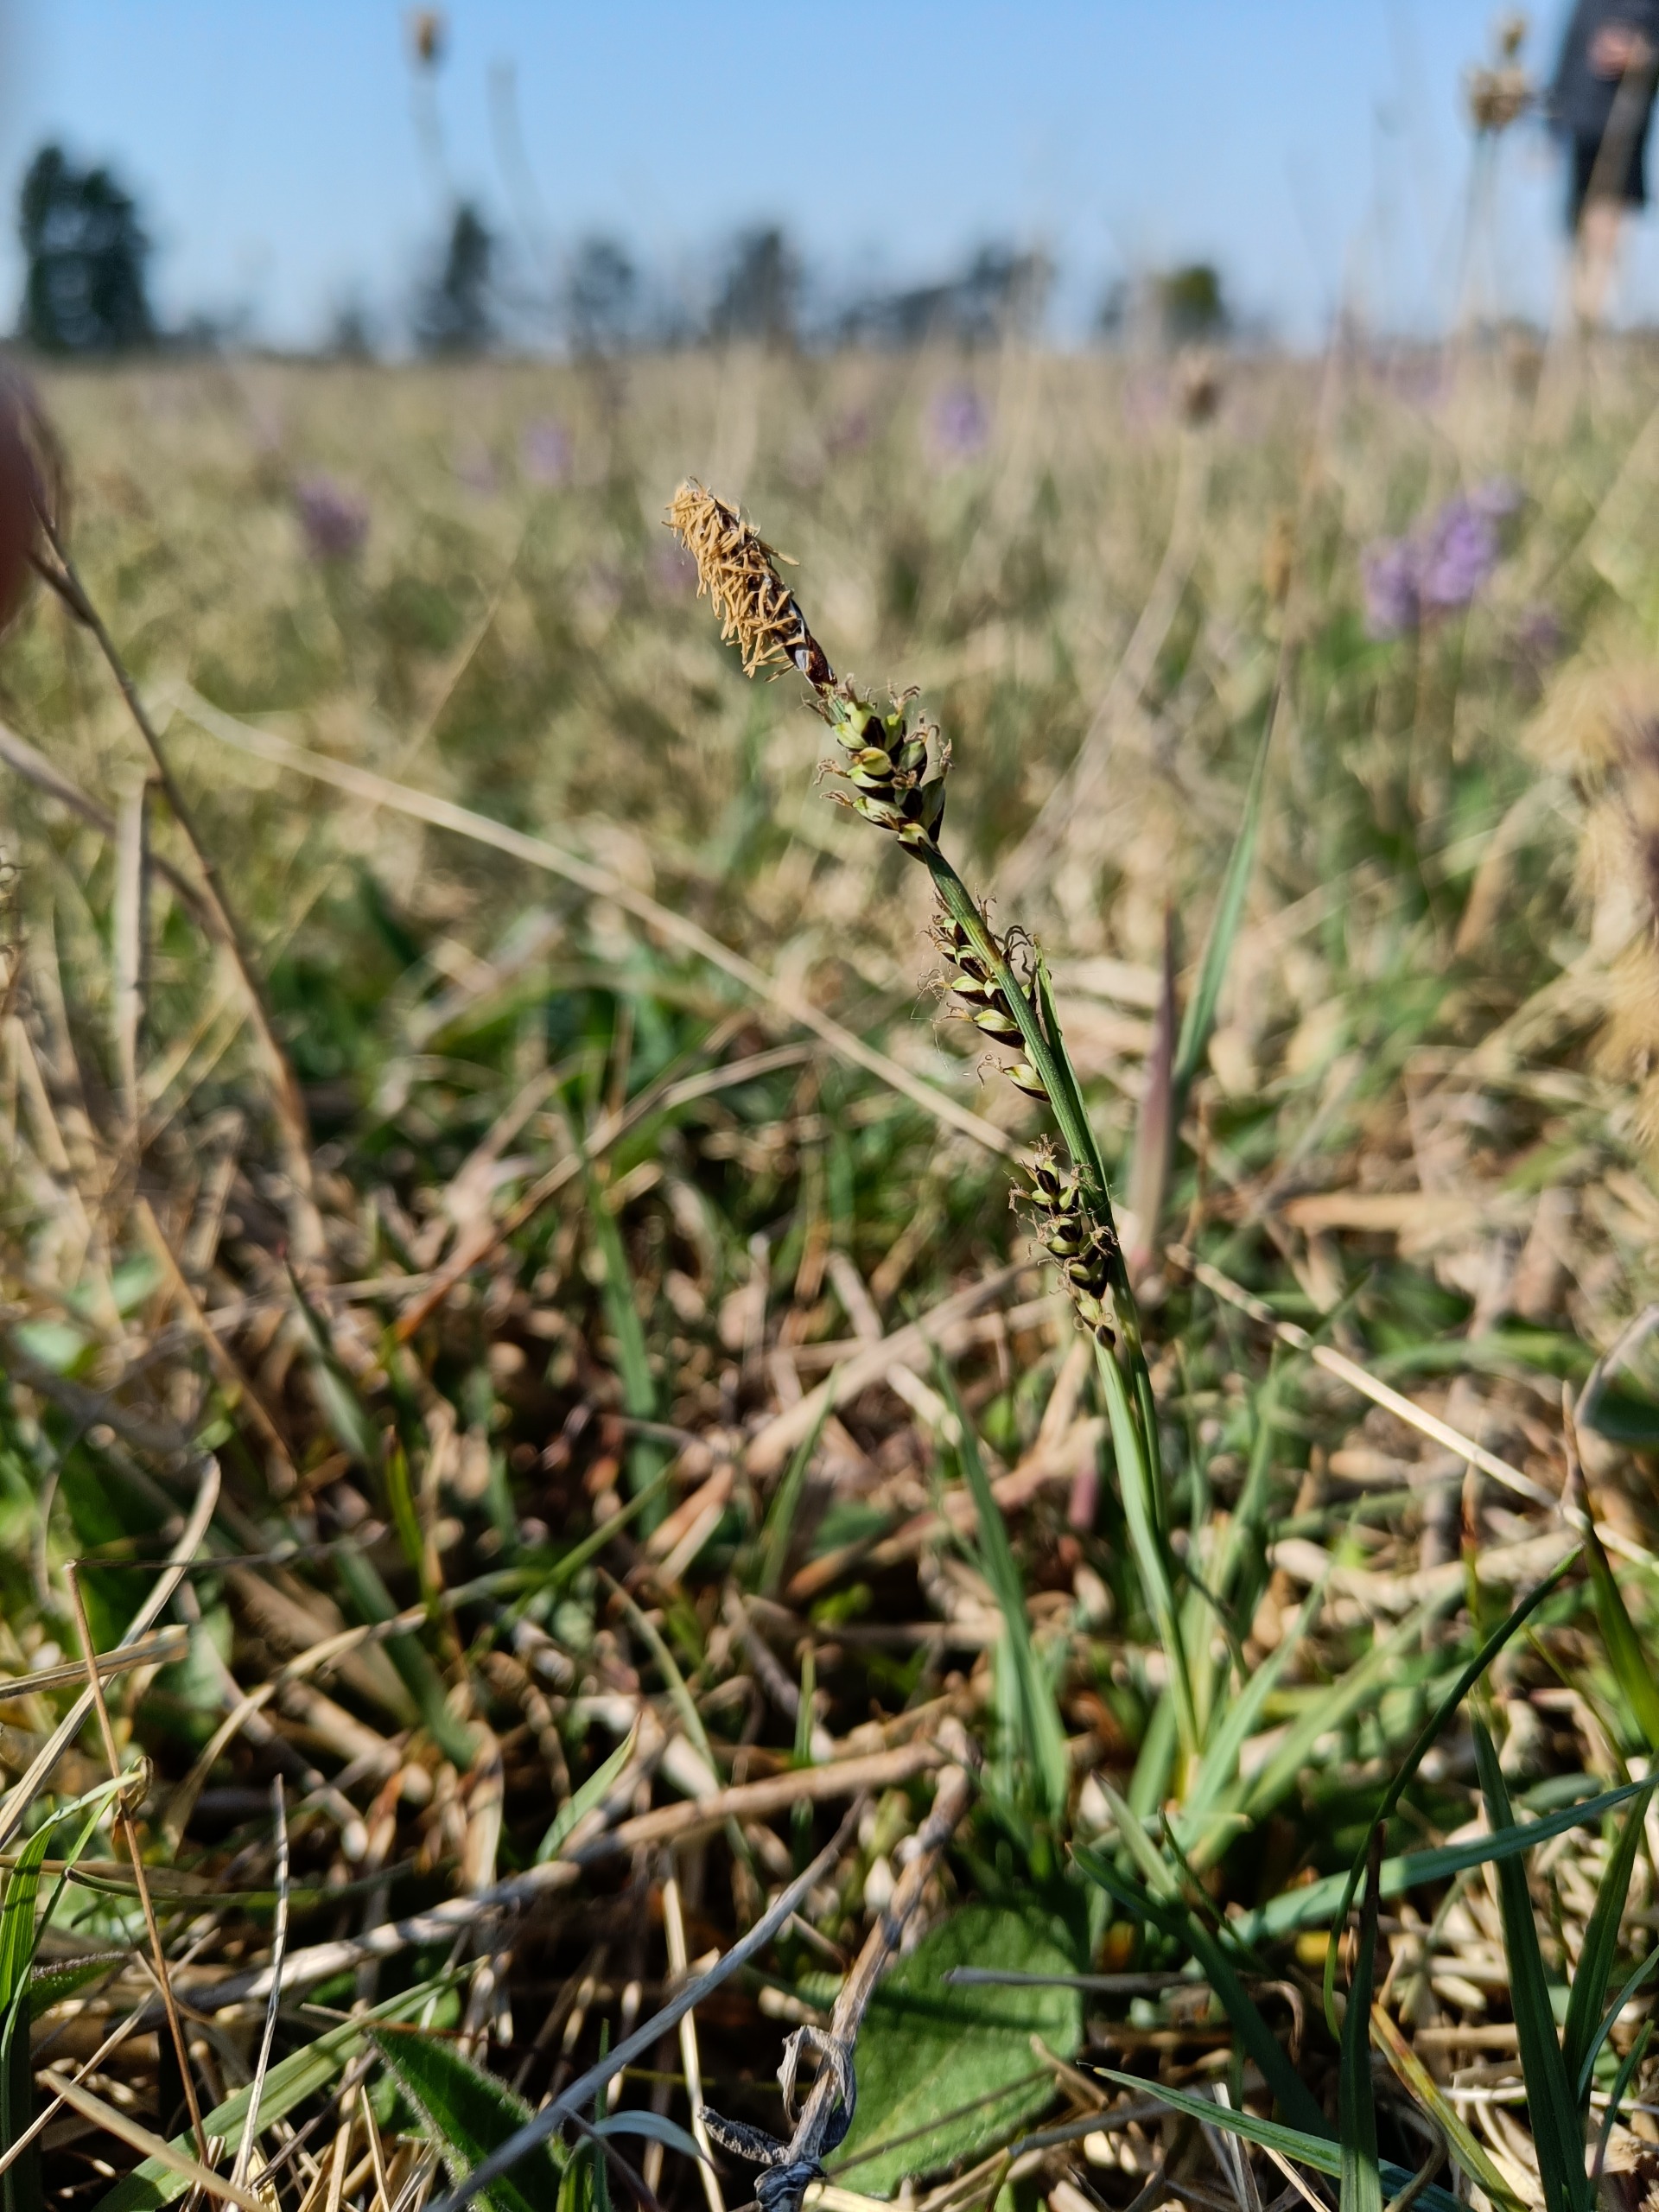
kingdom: Plantae
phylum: Tracheophyta
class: Liliopsida
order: Poales
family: Cyperaceae
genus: Carex
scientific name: Carex panicea
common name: Hirse-star
